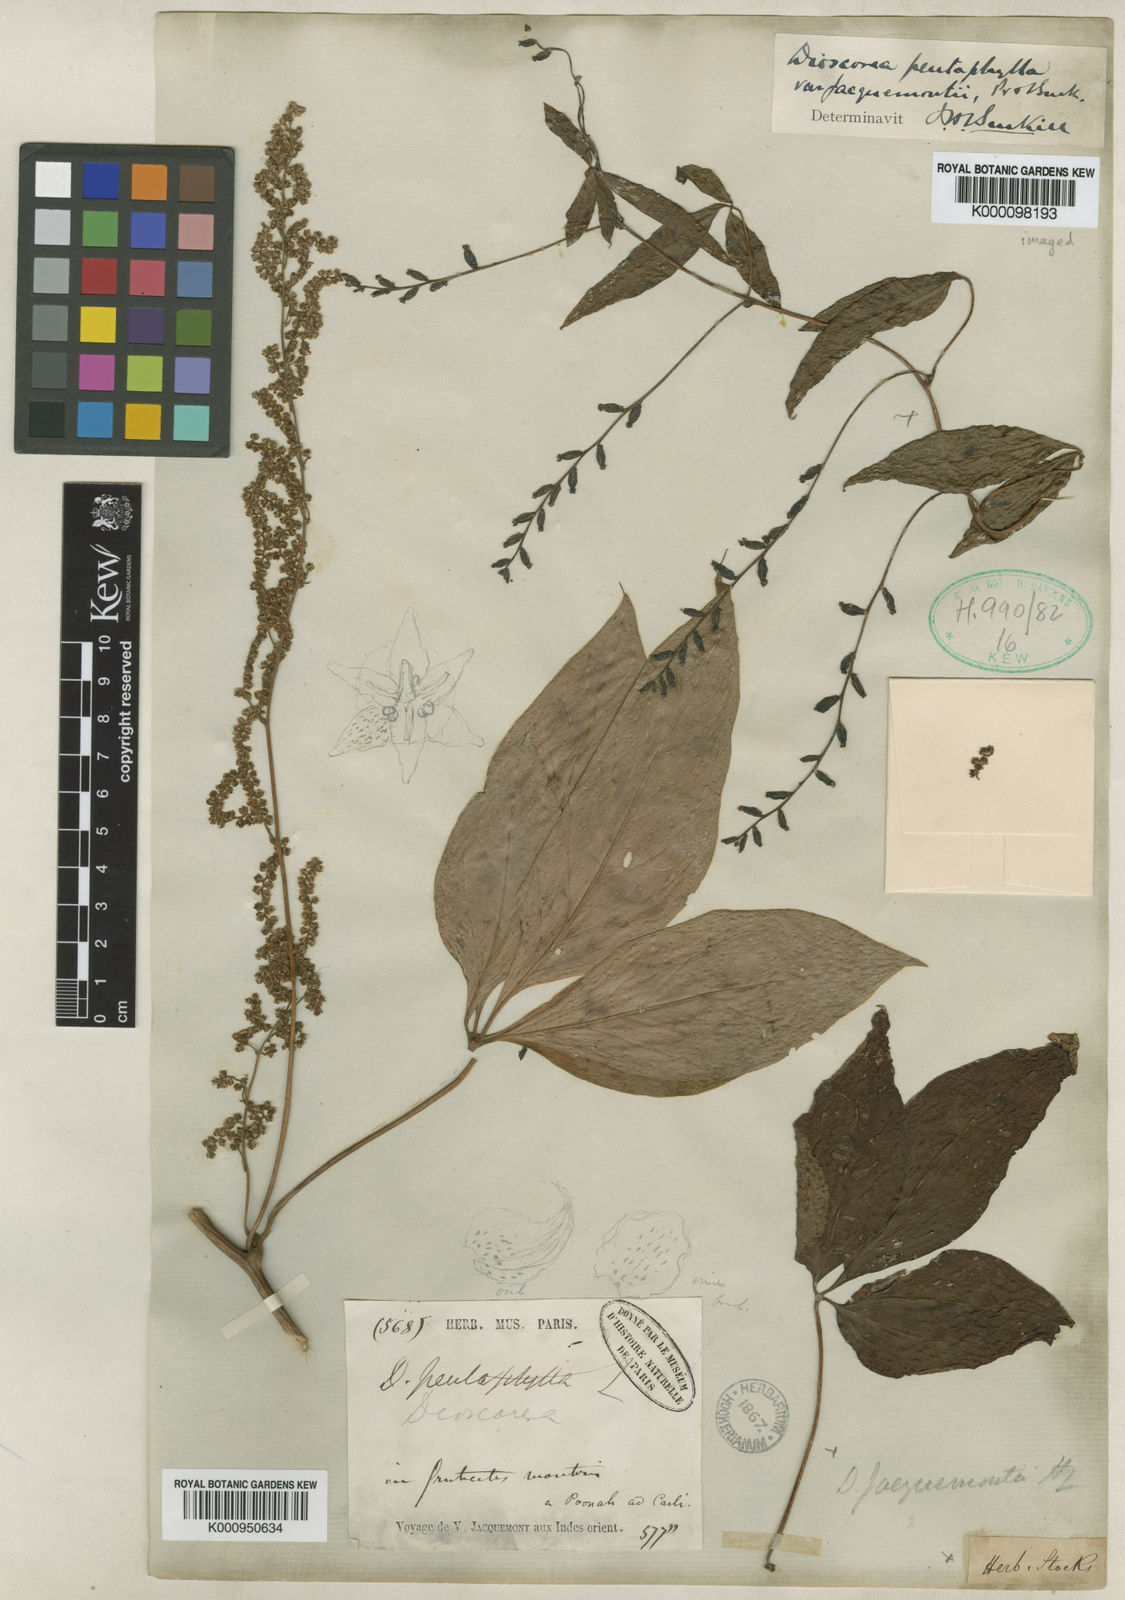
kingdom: Plantae
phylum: Tracheophyta
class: Liliopsida
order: Dioscoreales
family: Dioscoreaceae
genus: Dioscorea
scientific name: Dioscorea pentaphylla
